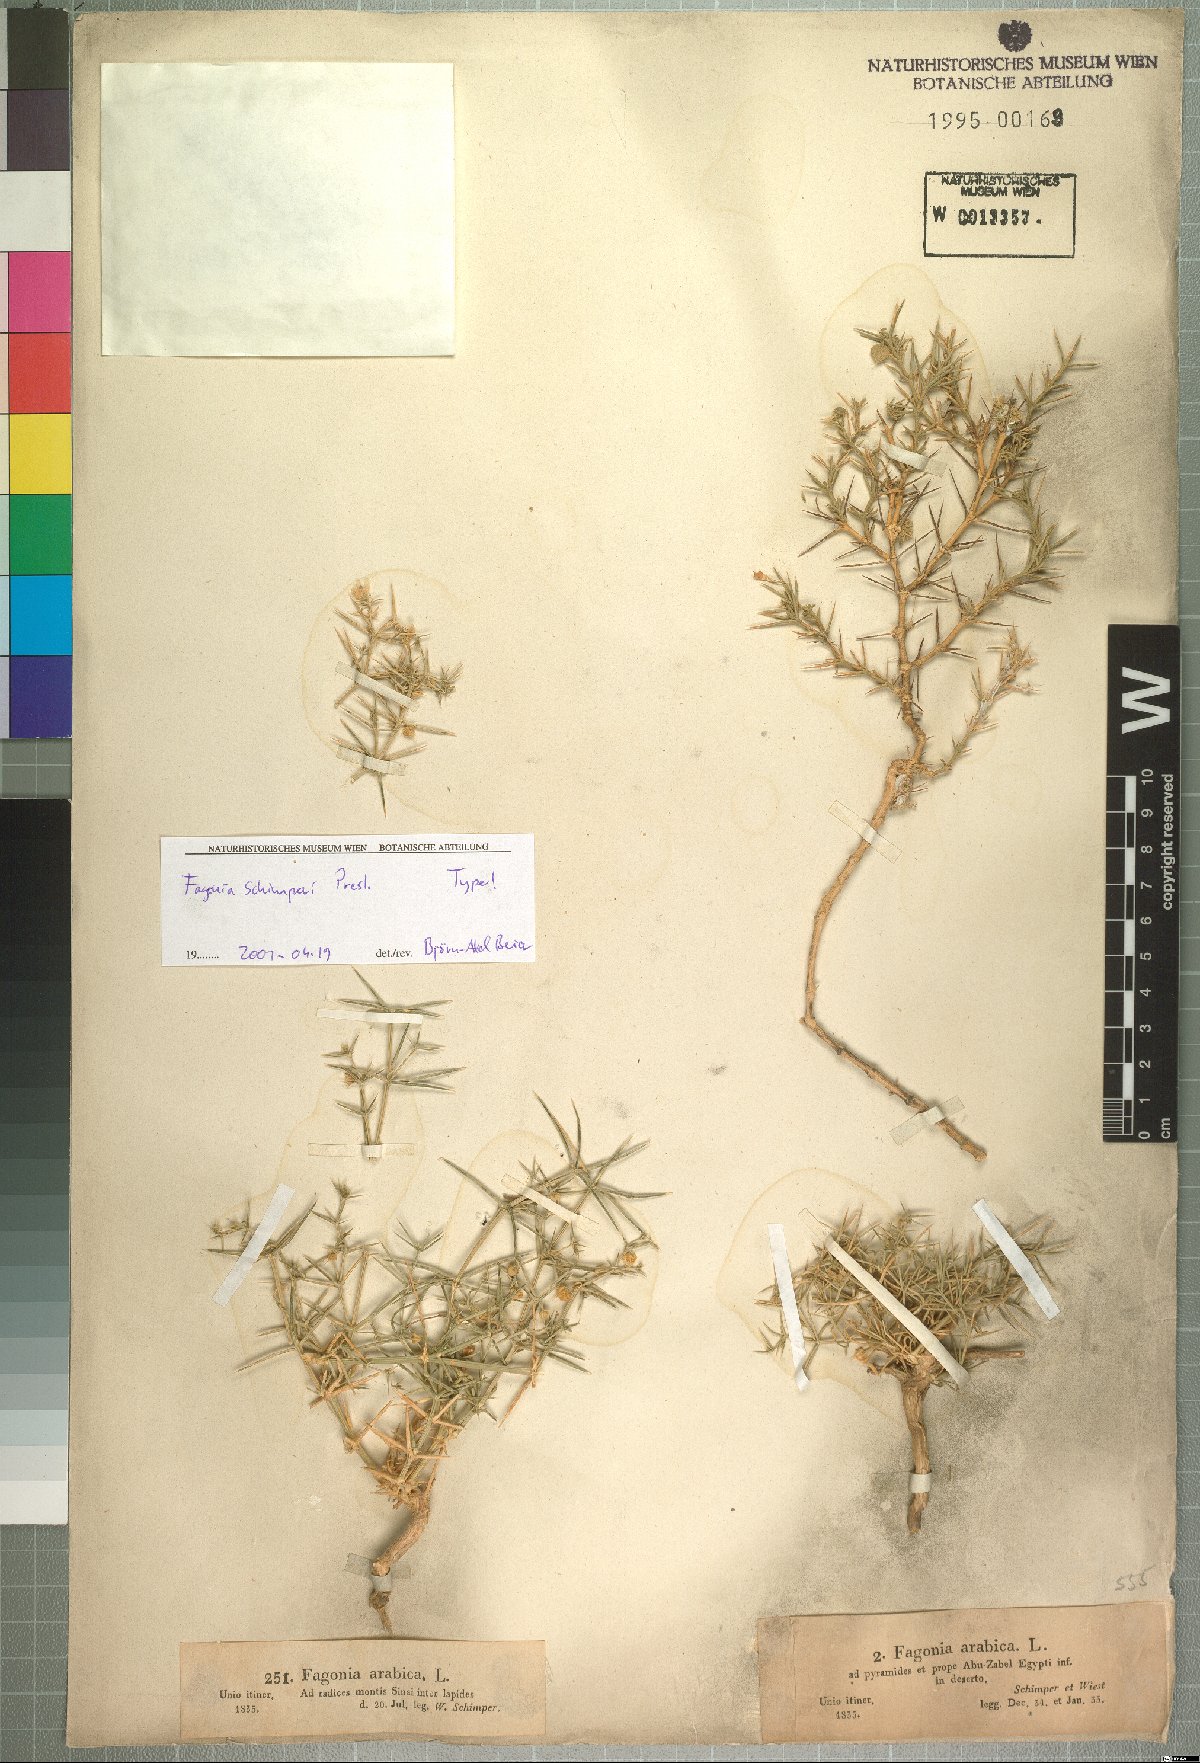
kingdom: Plantae
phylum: Tracheophyta
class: Magnoliopsida
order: Zygophyllales
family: Zygophyllaceae
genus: Fagonia
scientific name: Fagonia bruguieri
